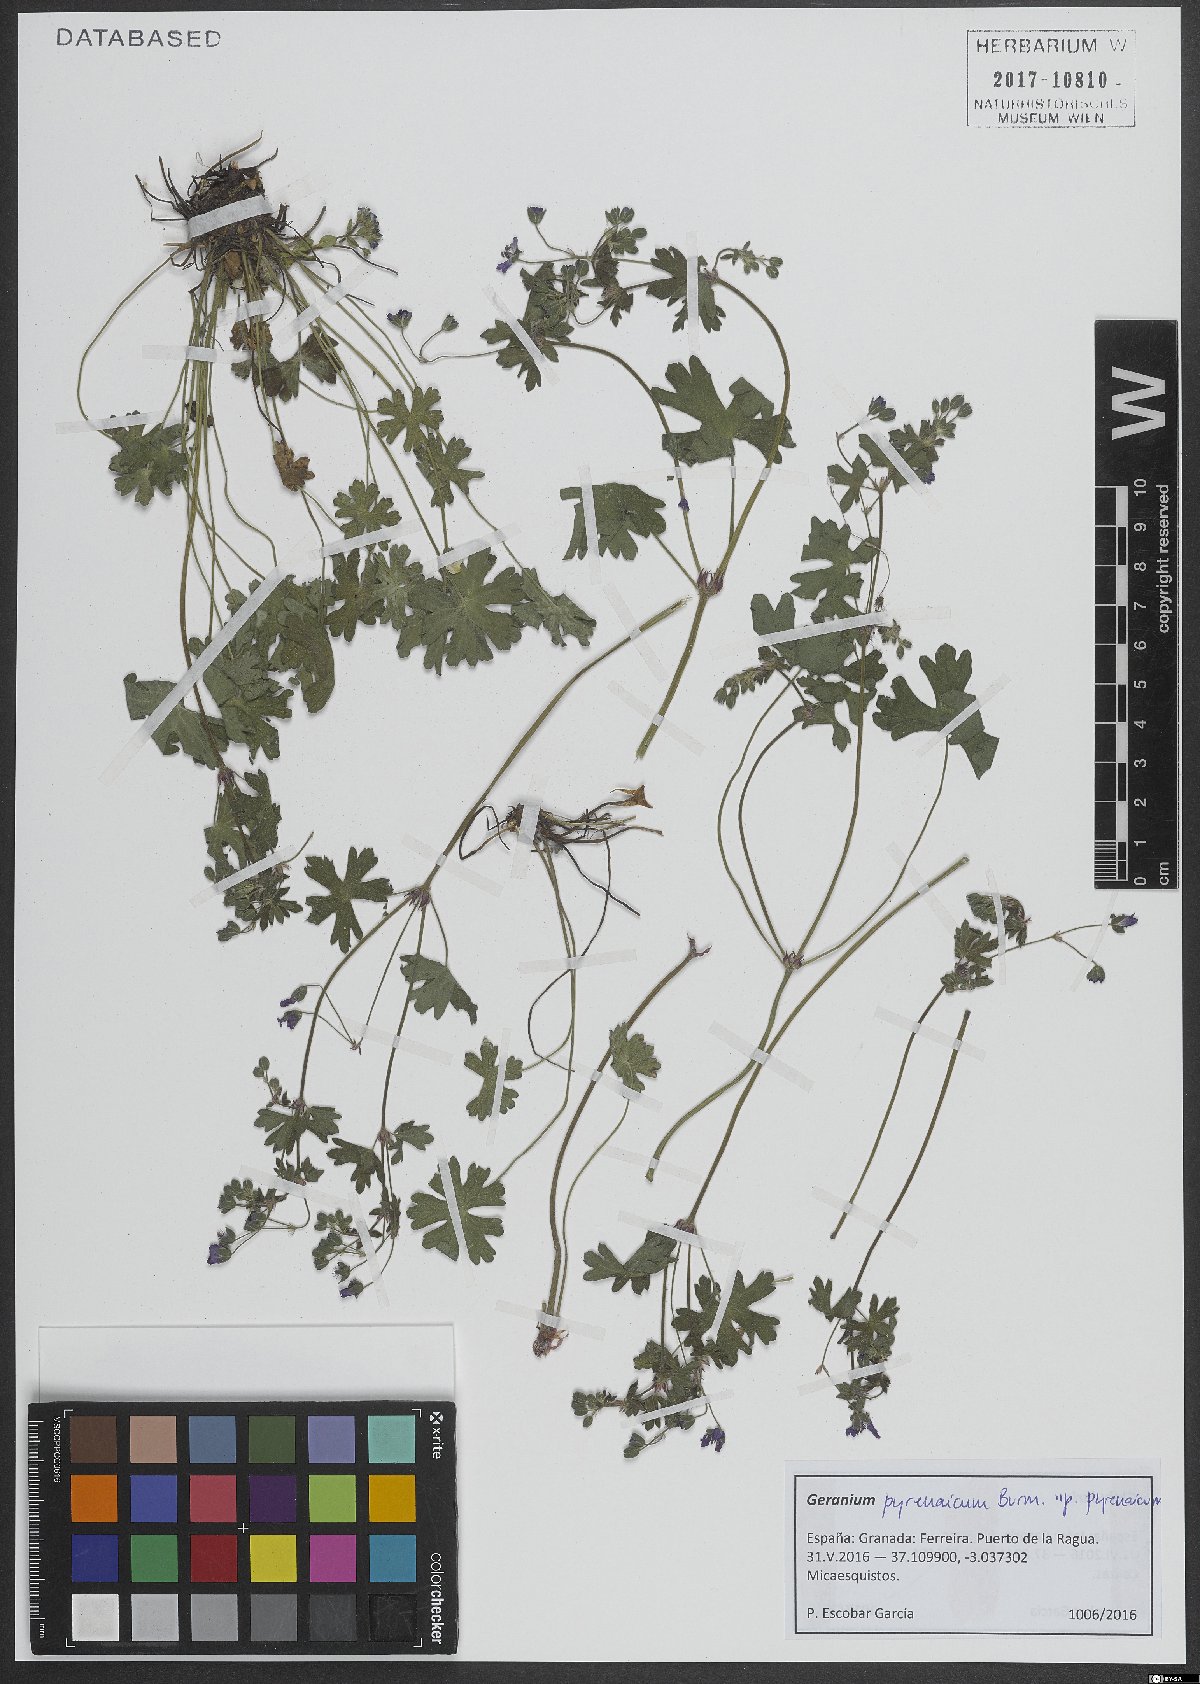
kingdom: Plantae
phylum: Tracheophyta
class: Magnoliopsida
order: Geraniales
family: Geraniaceae
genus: Geranium
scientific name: Geranium pyrenaicum
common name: Hedgerow crane's-bill
